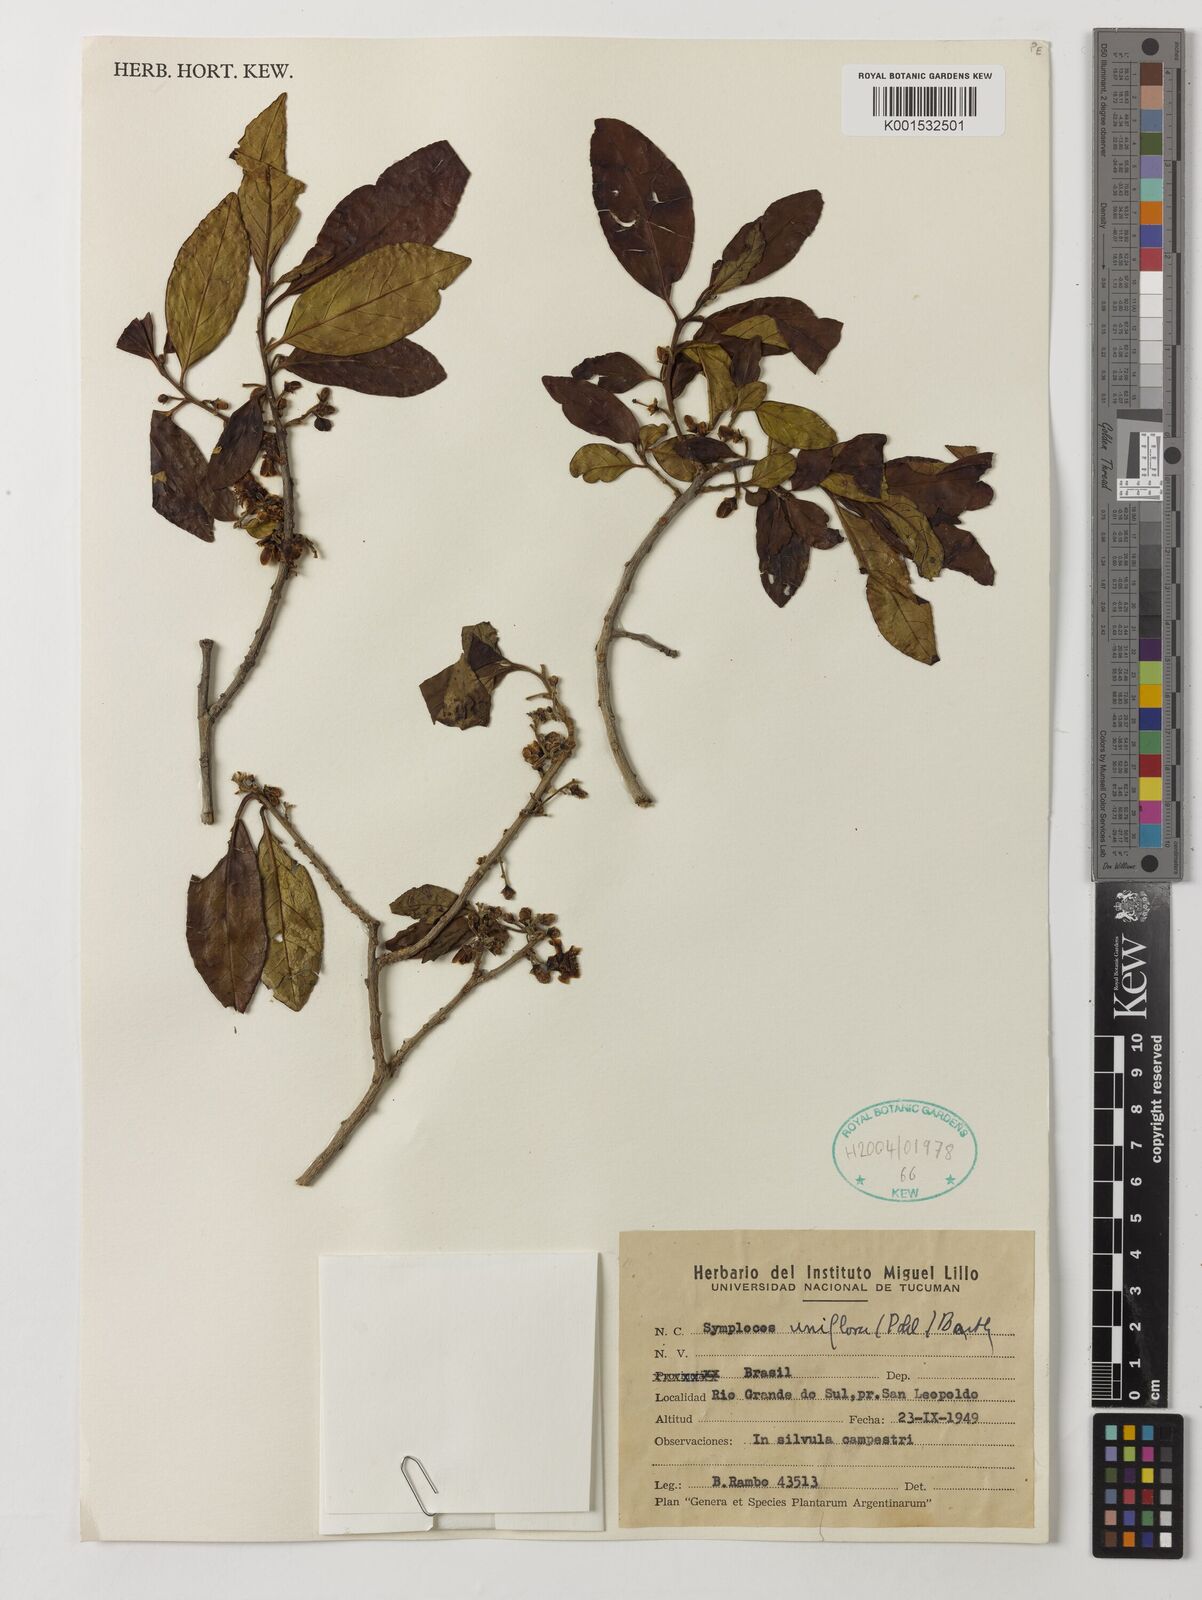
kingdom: Plantae
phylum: Tracheophyta
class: Magnoliopsida
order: Ericales
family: Symplocaceae
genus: Symplocos
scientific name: Symplocos uniflora
